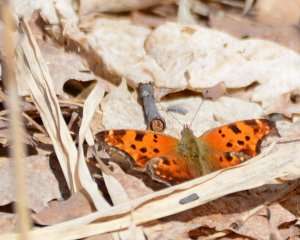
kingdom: Animalia
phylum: Arthropoda
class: Insecta
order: Lepidoptera
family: Nymphalidae
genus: Polygonia
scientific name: Polygonia comma
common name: Eastern Comma
